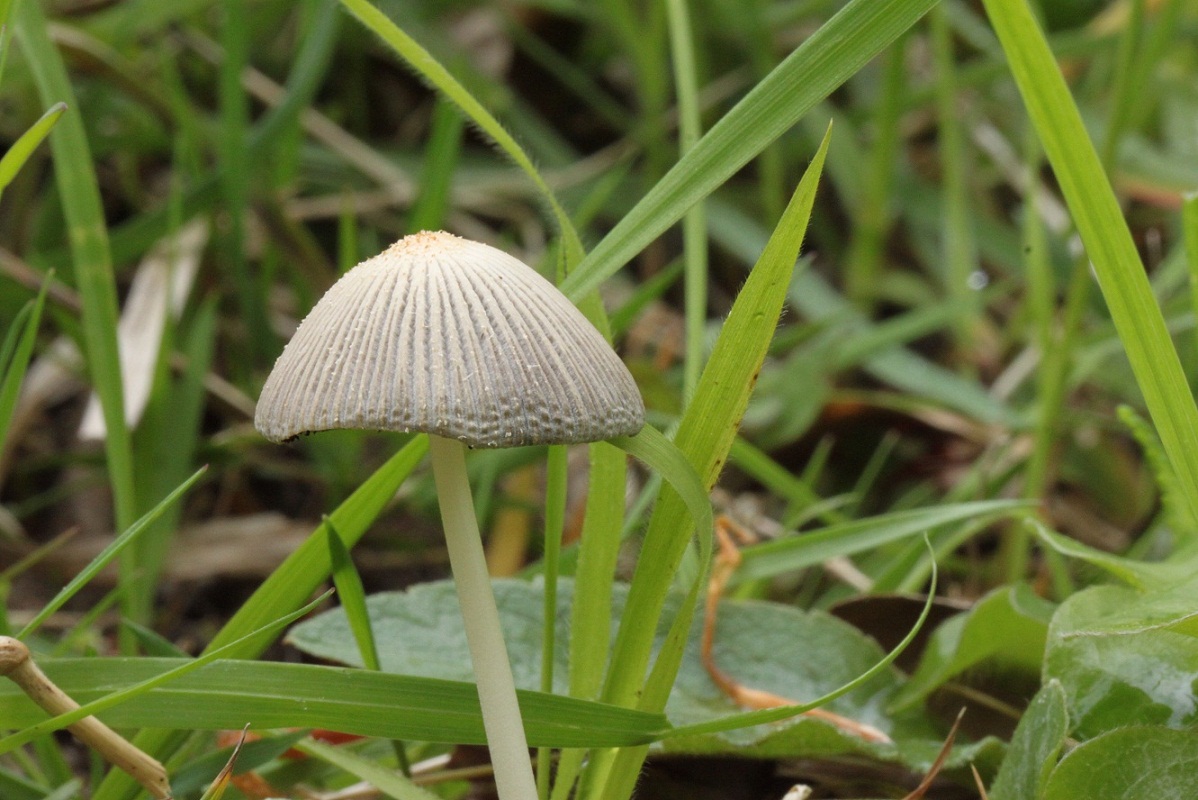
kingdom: Fungi
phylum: Basidiomycota
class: Agaricomycetes
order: Agaricales
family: Psathyrellaceae
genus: Coprinellus
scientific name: Coprinellus xanthothrix
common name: gultrådet blækhat
